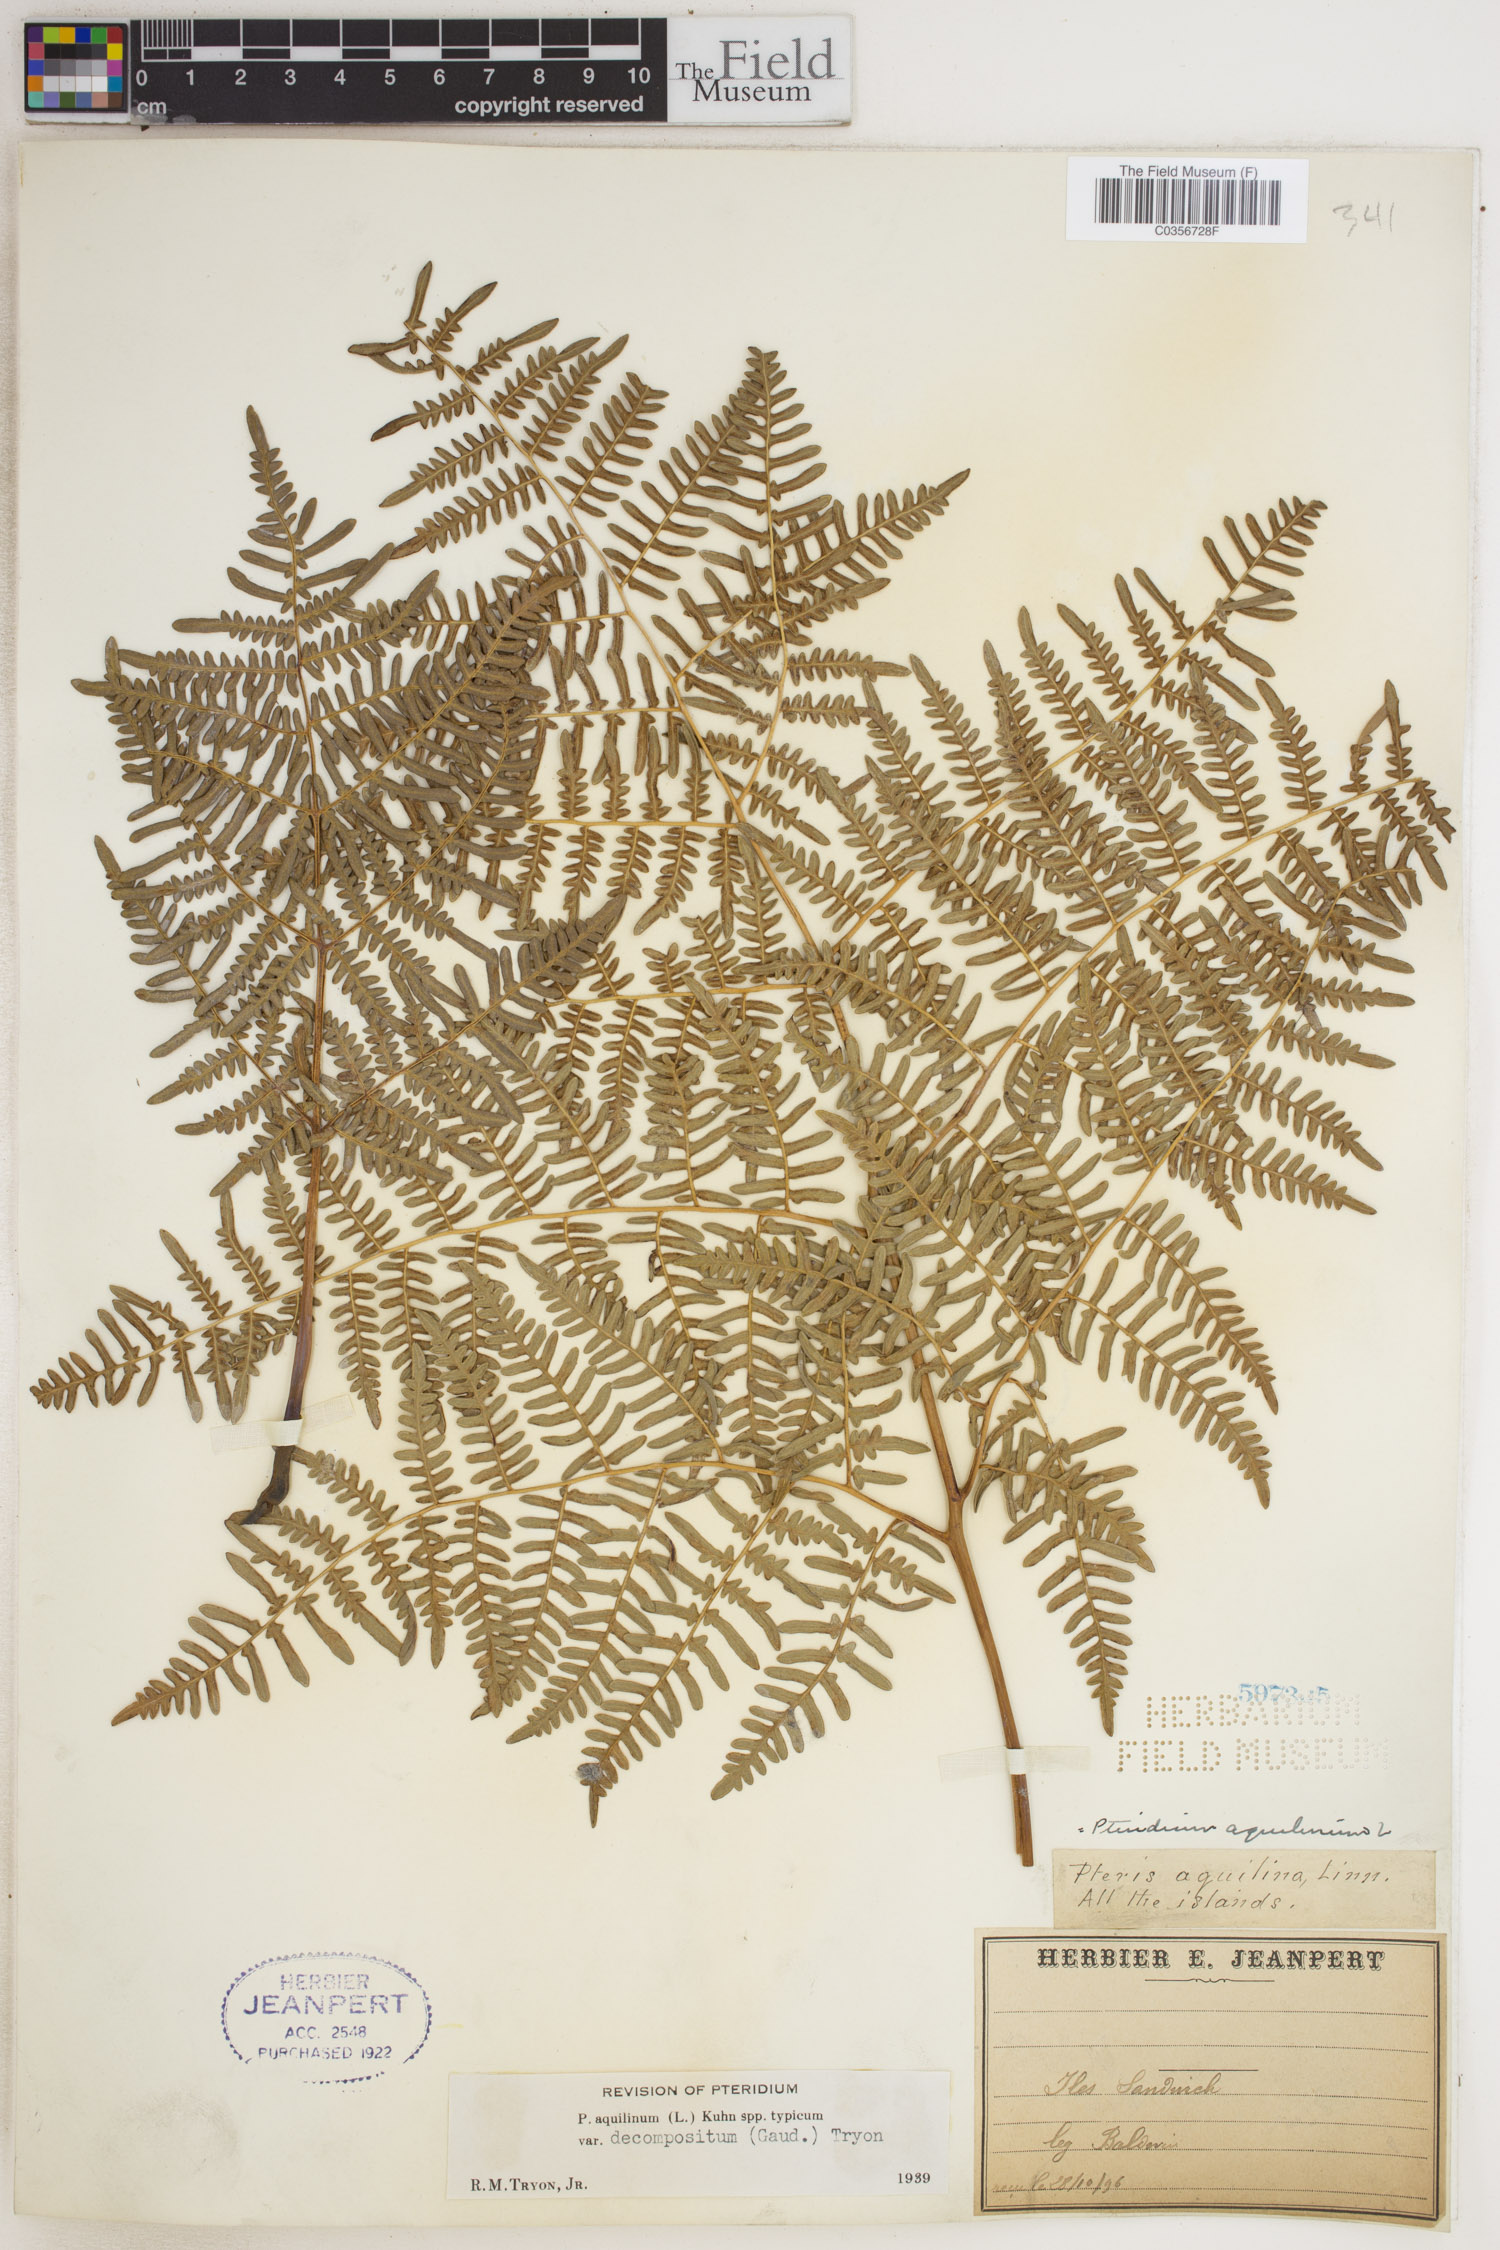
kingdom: Plantae
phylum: Tracheophyta
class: Polypodiopsida
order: Polypodiales
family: Dennstaedtiaceae
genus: Pteridium
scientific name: Pteridium aquilinum
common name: Bracken
